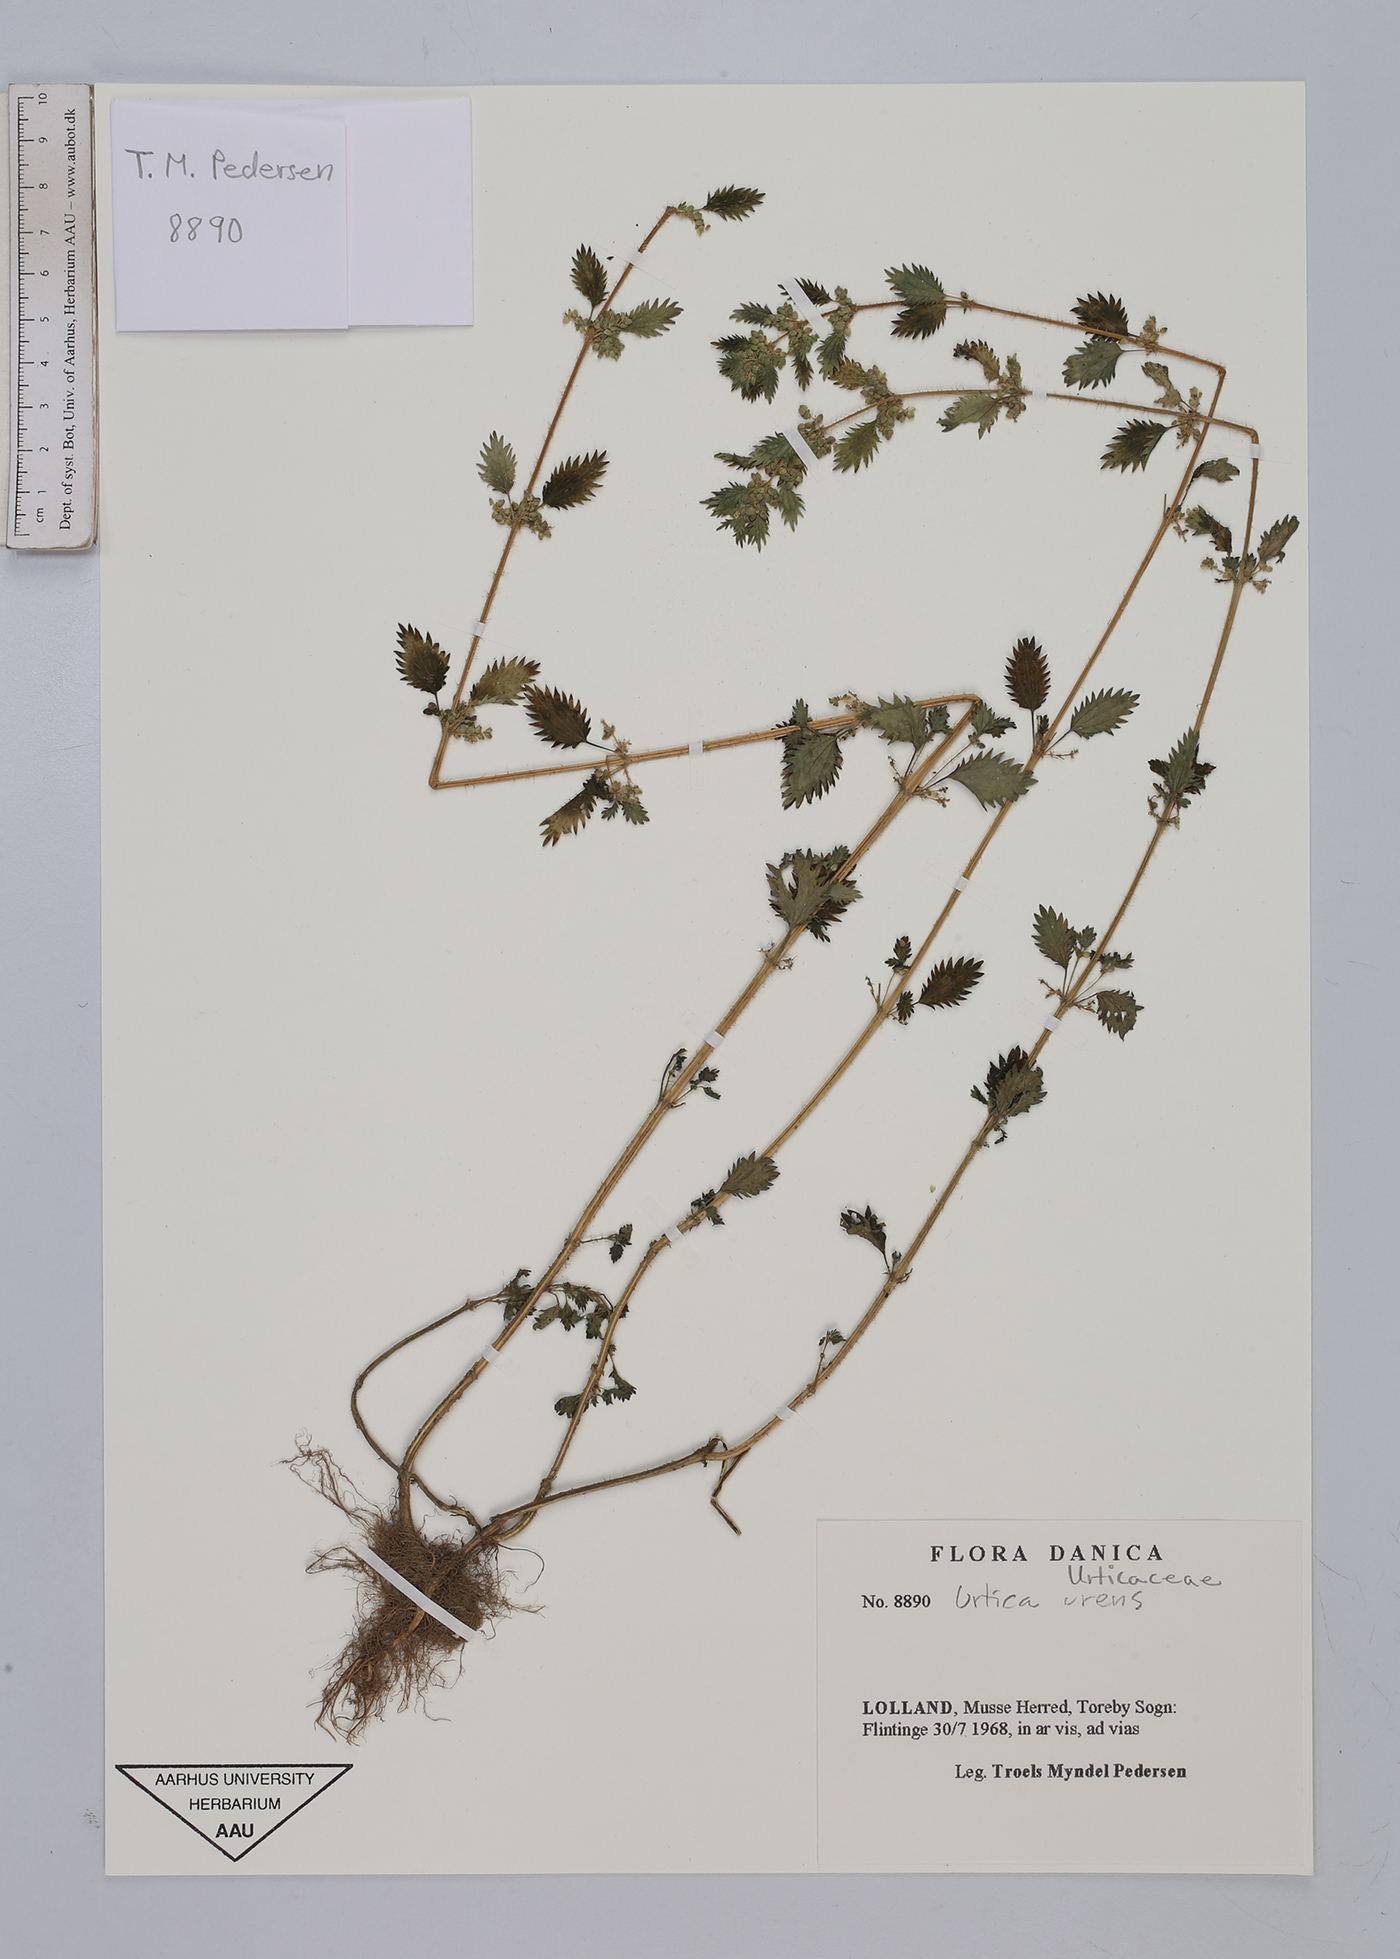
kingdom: Plantae
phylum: Tracheophyta
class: Magnoliopsida
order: Rosales
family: Urticaceae
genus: Urtica
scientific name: Urtica urens
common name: Dwarf nettle
